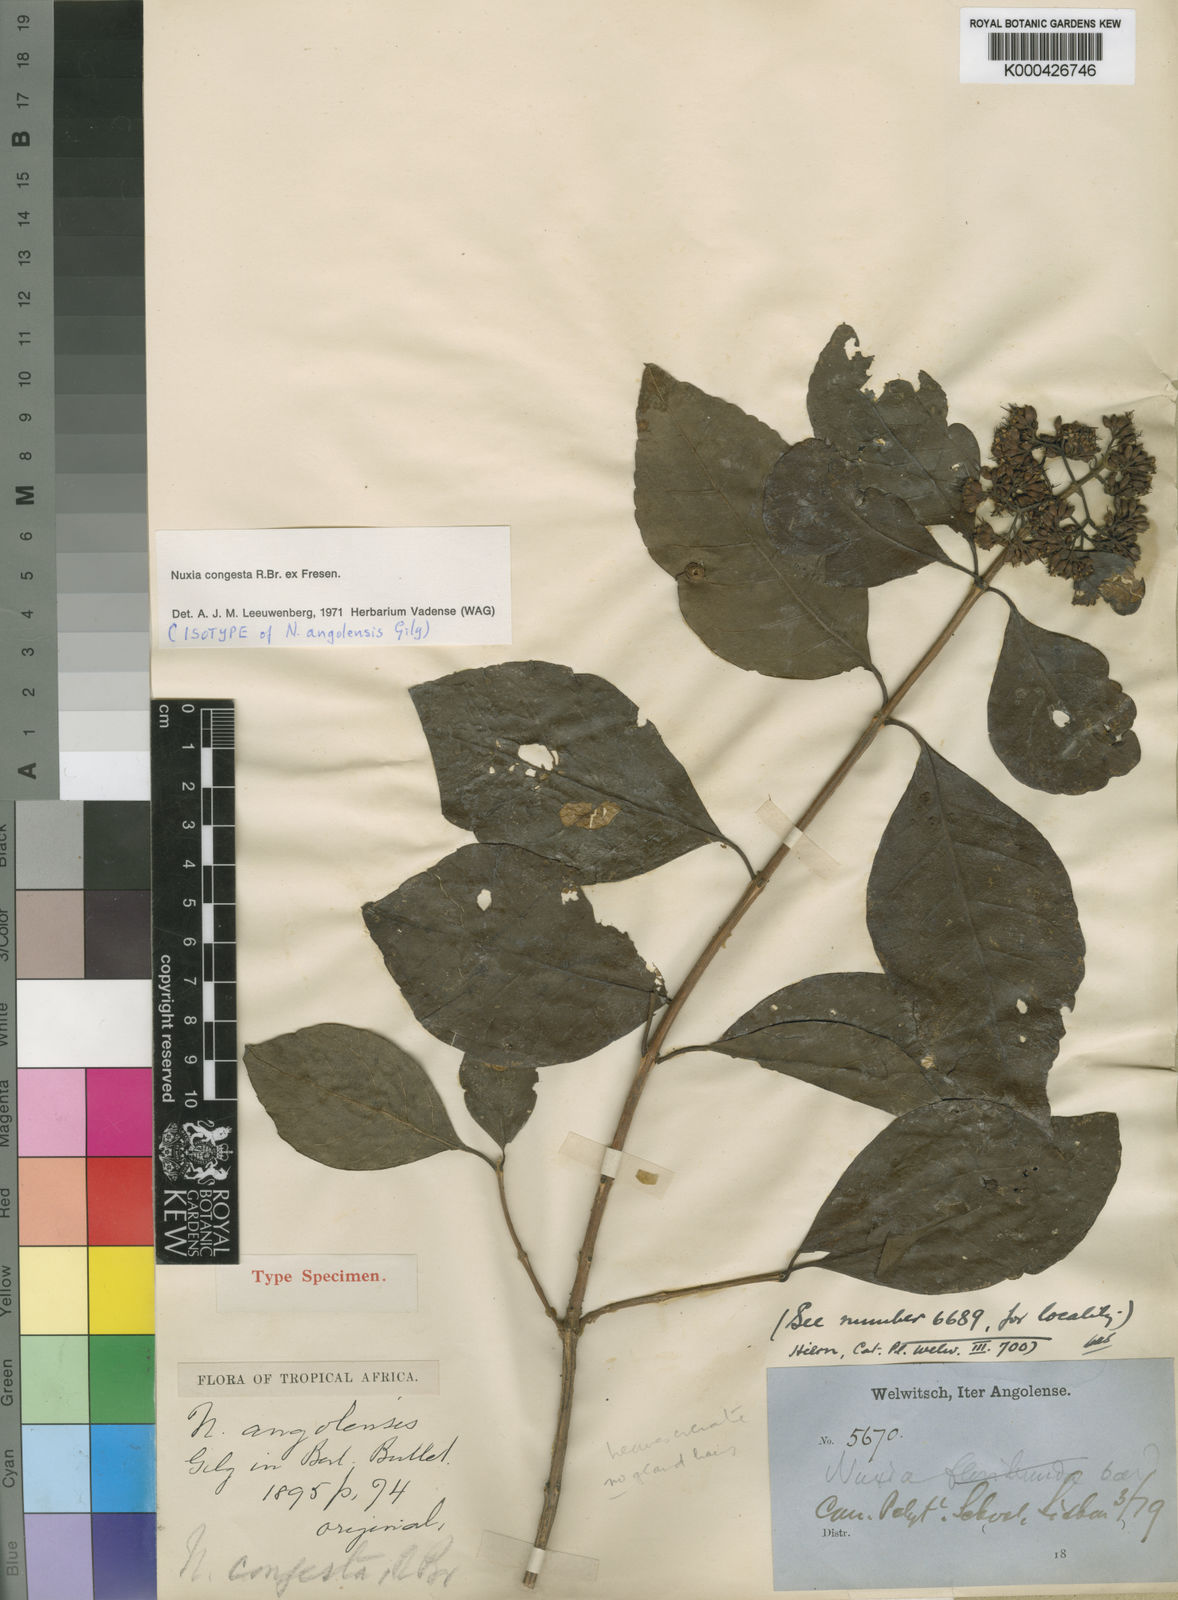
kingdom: Plantae
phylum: Tracheophyta
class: Magnoliopsida
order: Lamiales
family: Stilbaceae
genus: Nuxia
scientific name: Nuxia congesta
